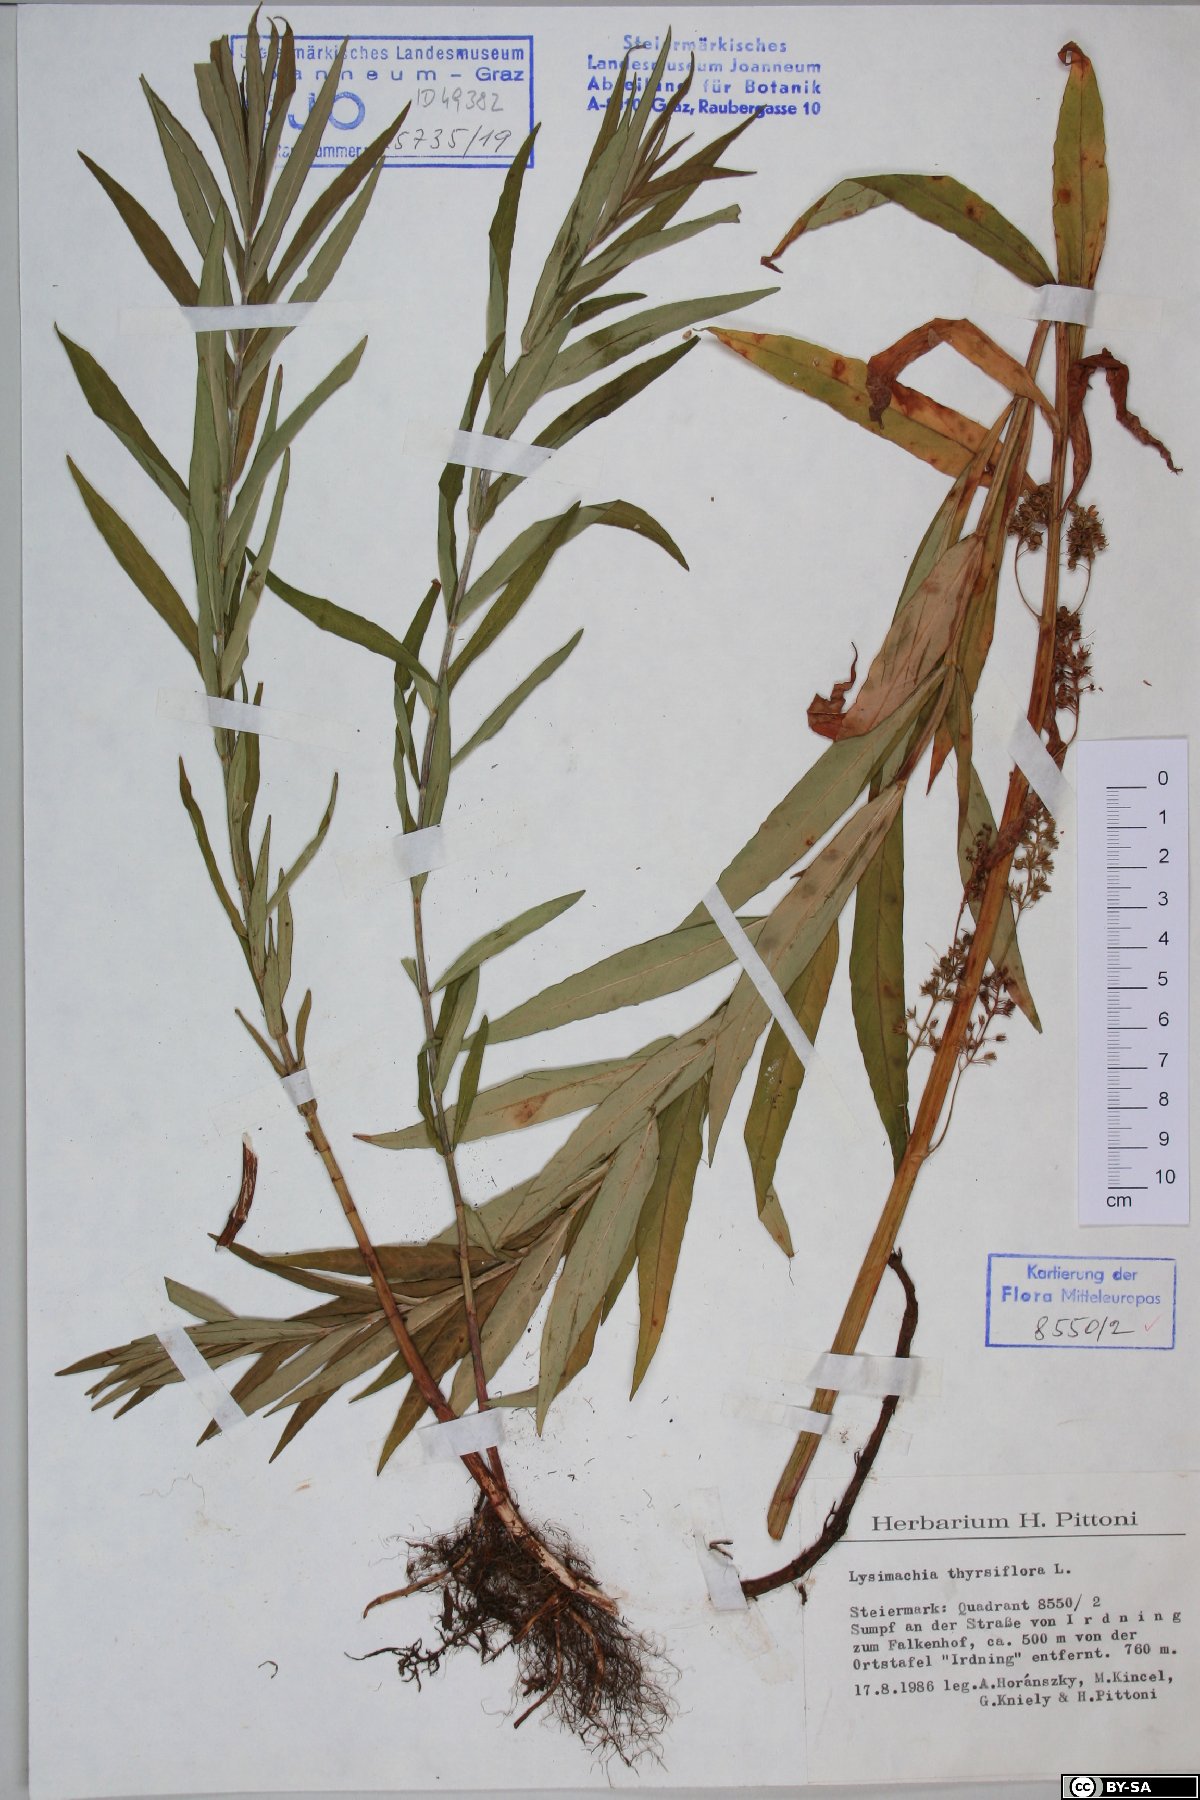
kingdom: Plantae
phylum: Tracheophyta
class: Magnoliopsida
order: Ericales
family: Primulaceae
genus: Lysimachia
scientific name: Lysimachia thyrsiflora
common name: Tufted loosestrife
